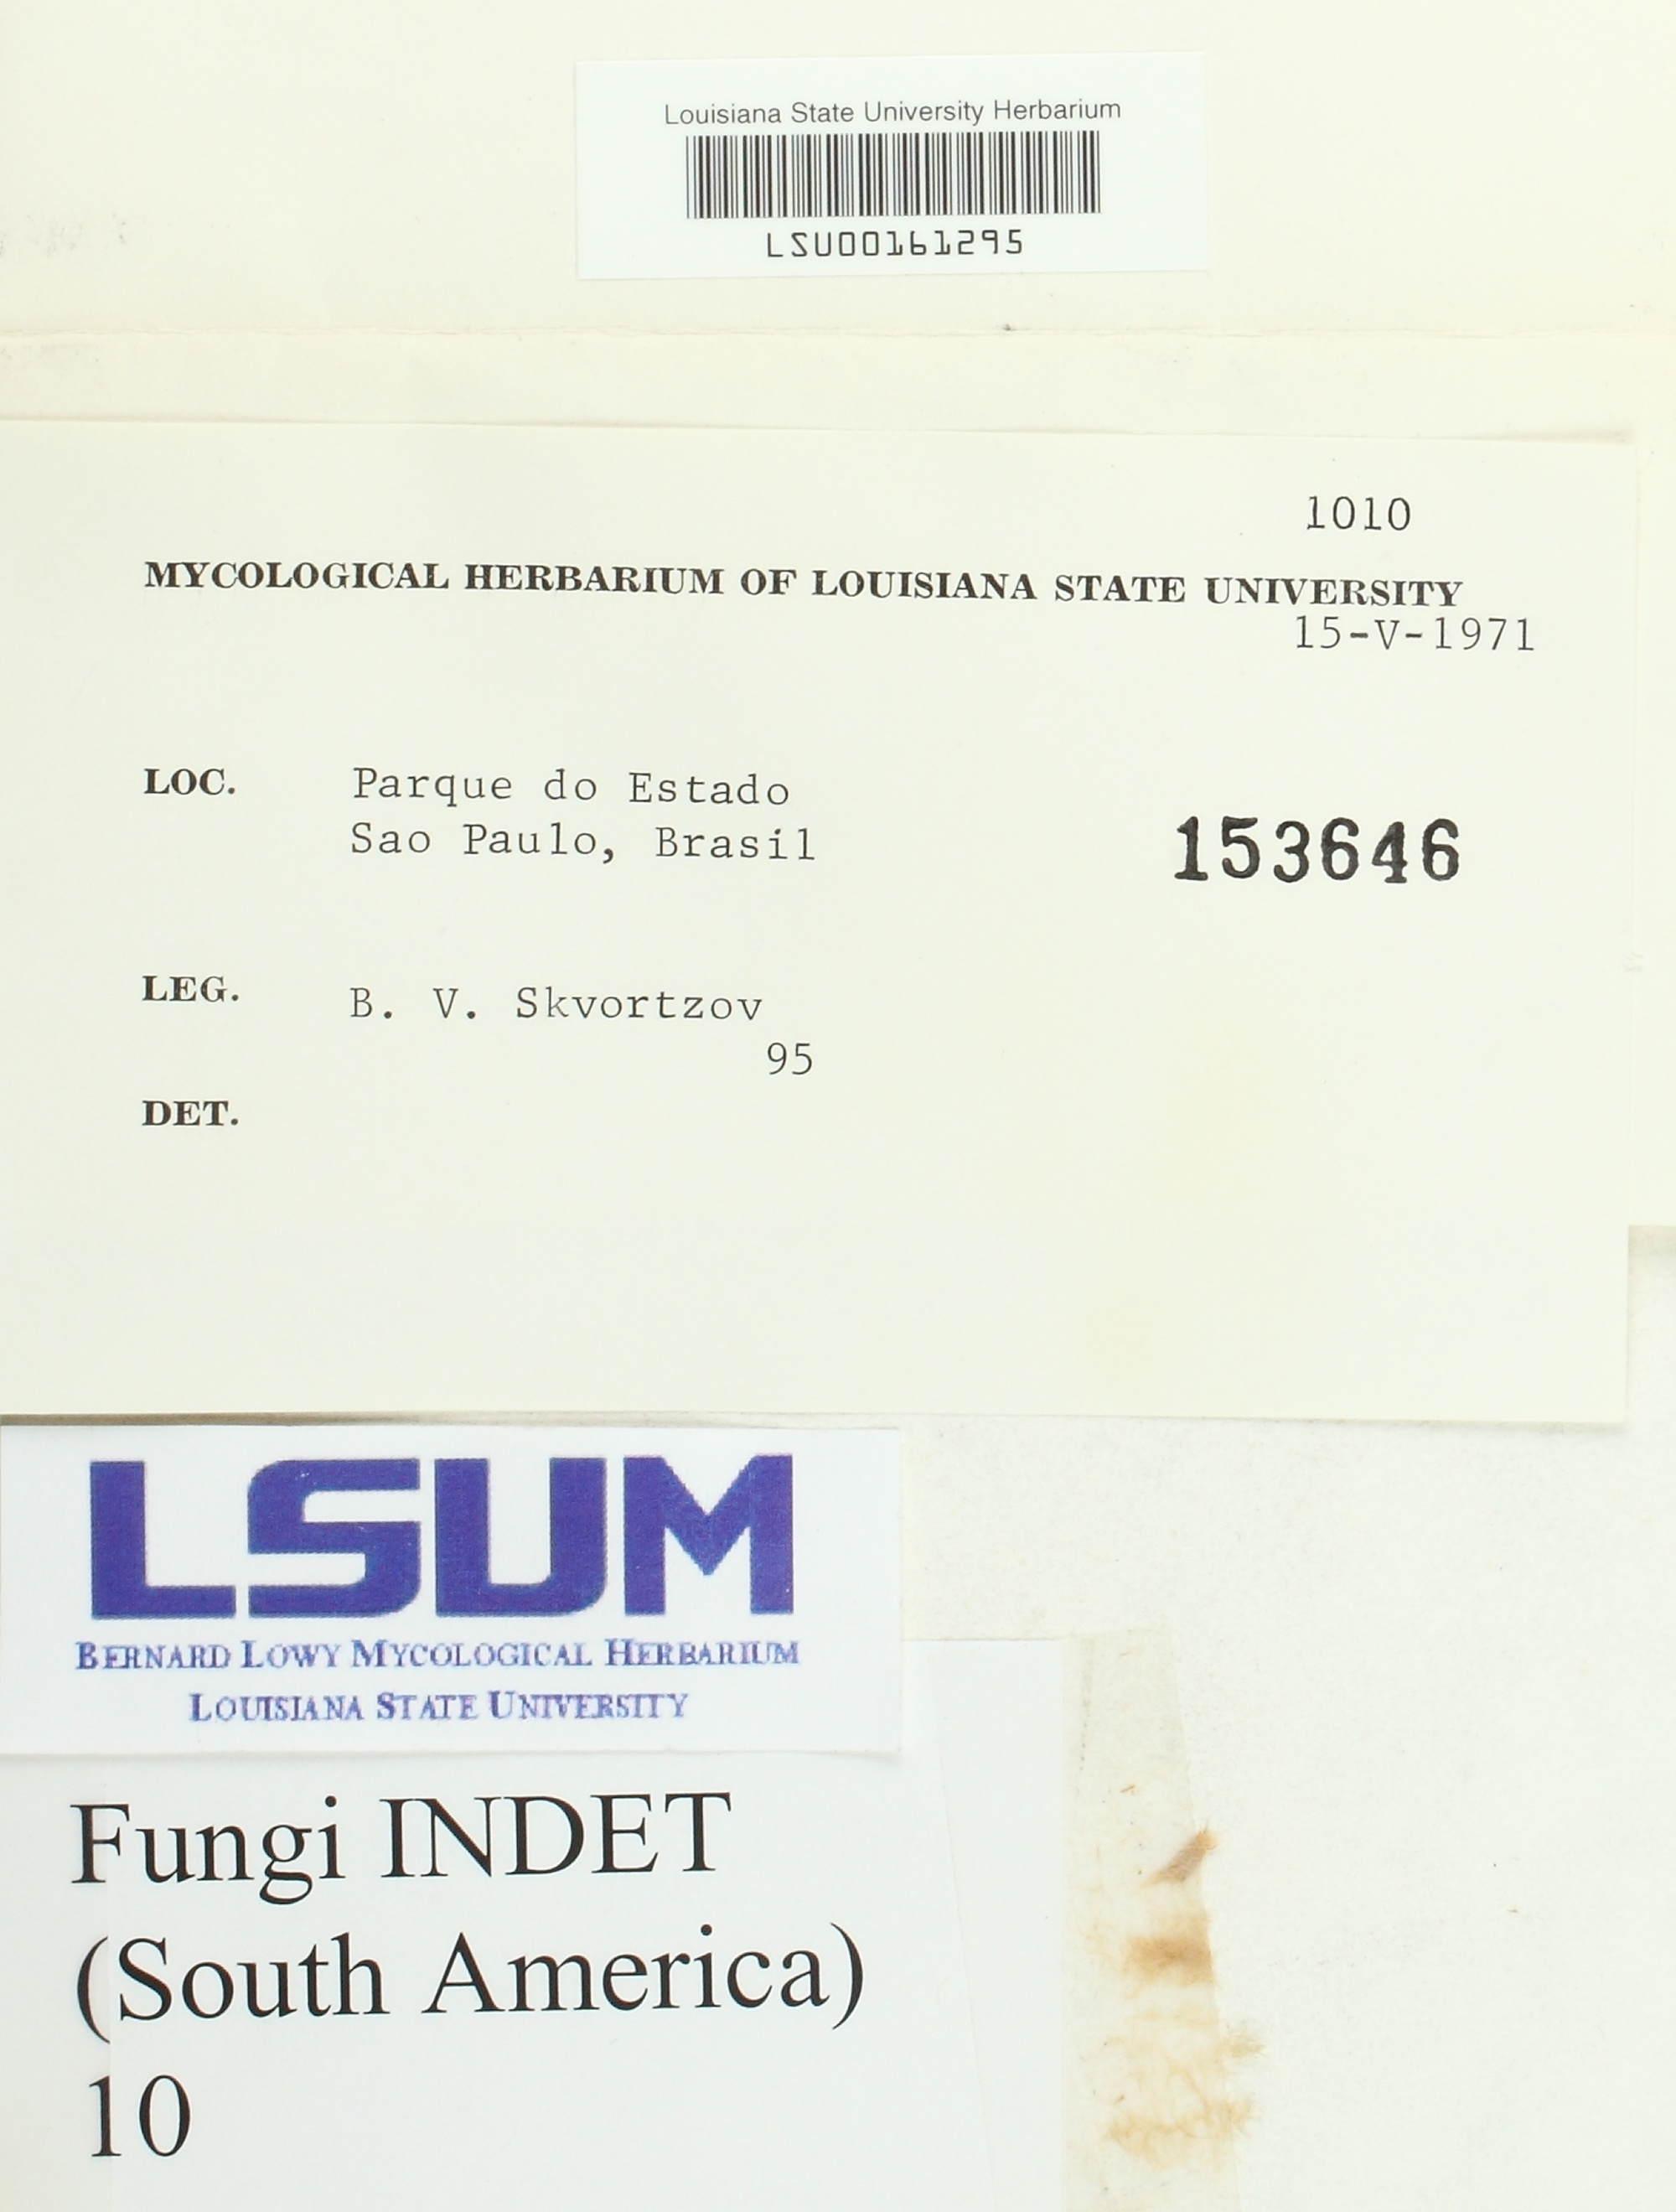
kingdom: Fungi
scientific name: Fungi
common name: Fungi
